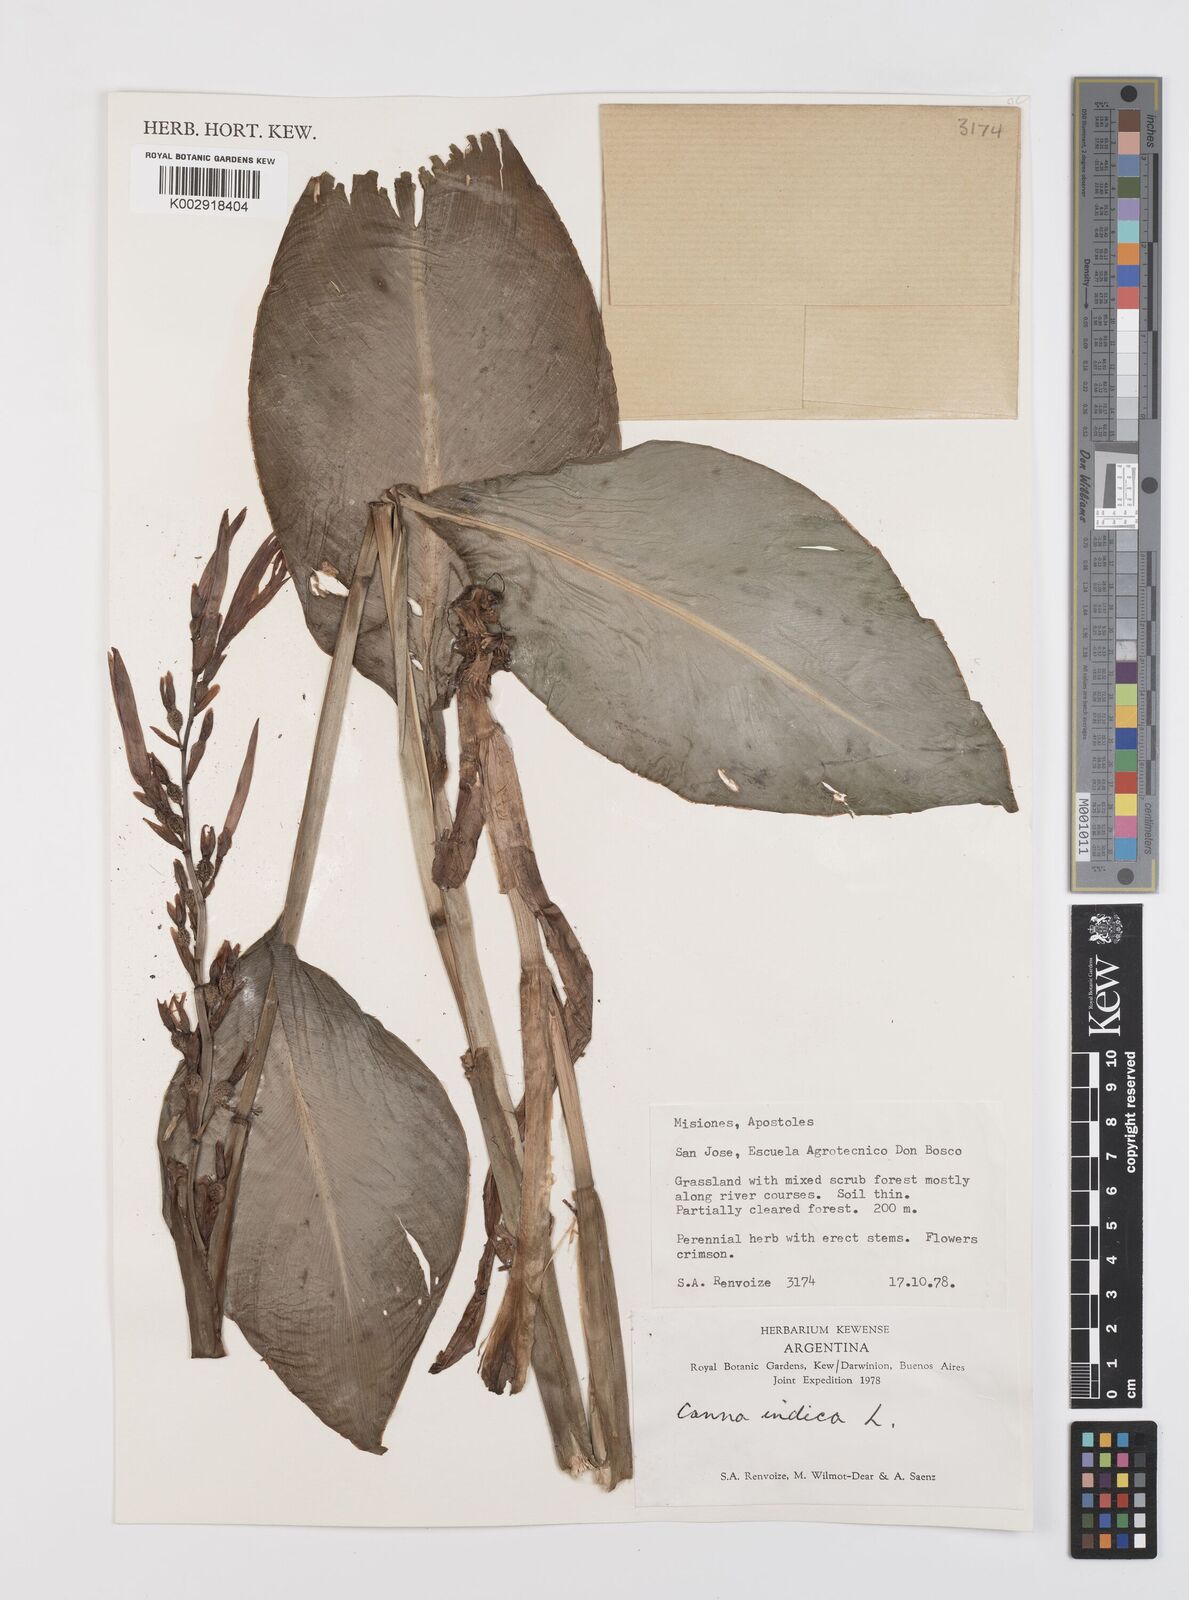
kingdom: Plantae
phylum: Tracheophyta
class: Liliopsida
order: Zingiberales
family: Cannaceae
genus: Canna
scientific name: Canna indica
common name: Indian shot
